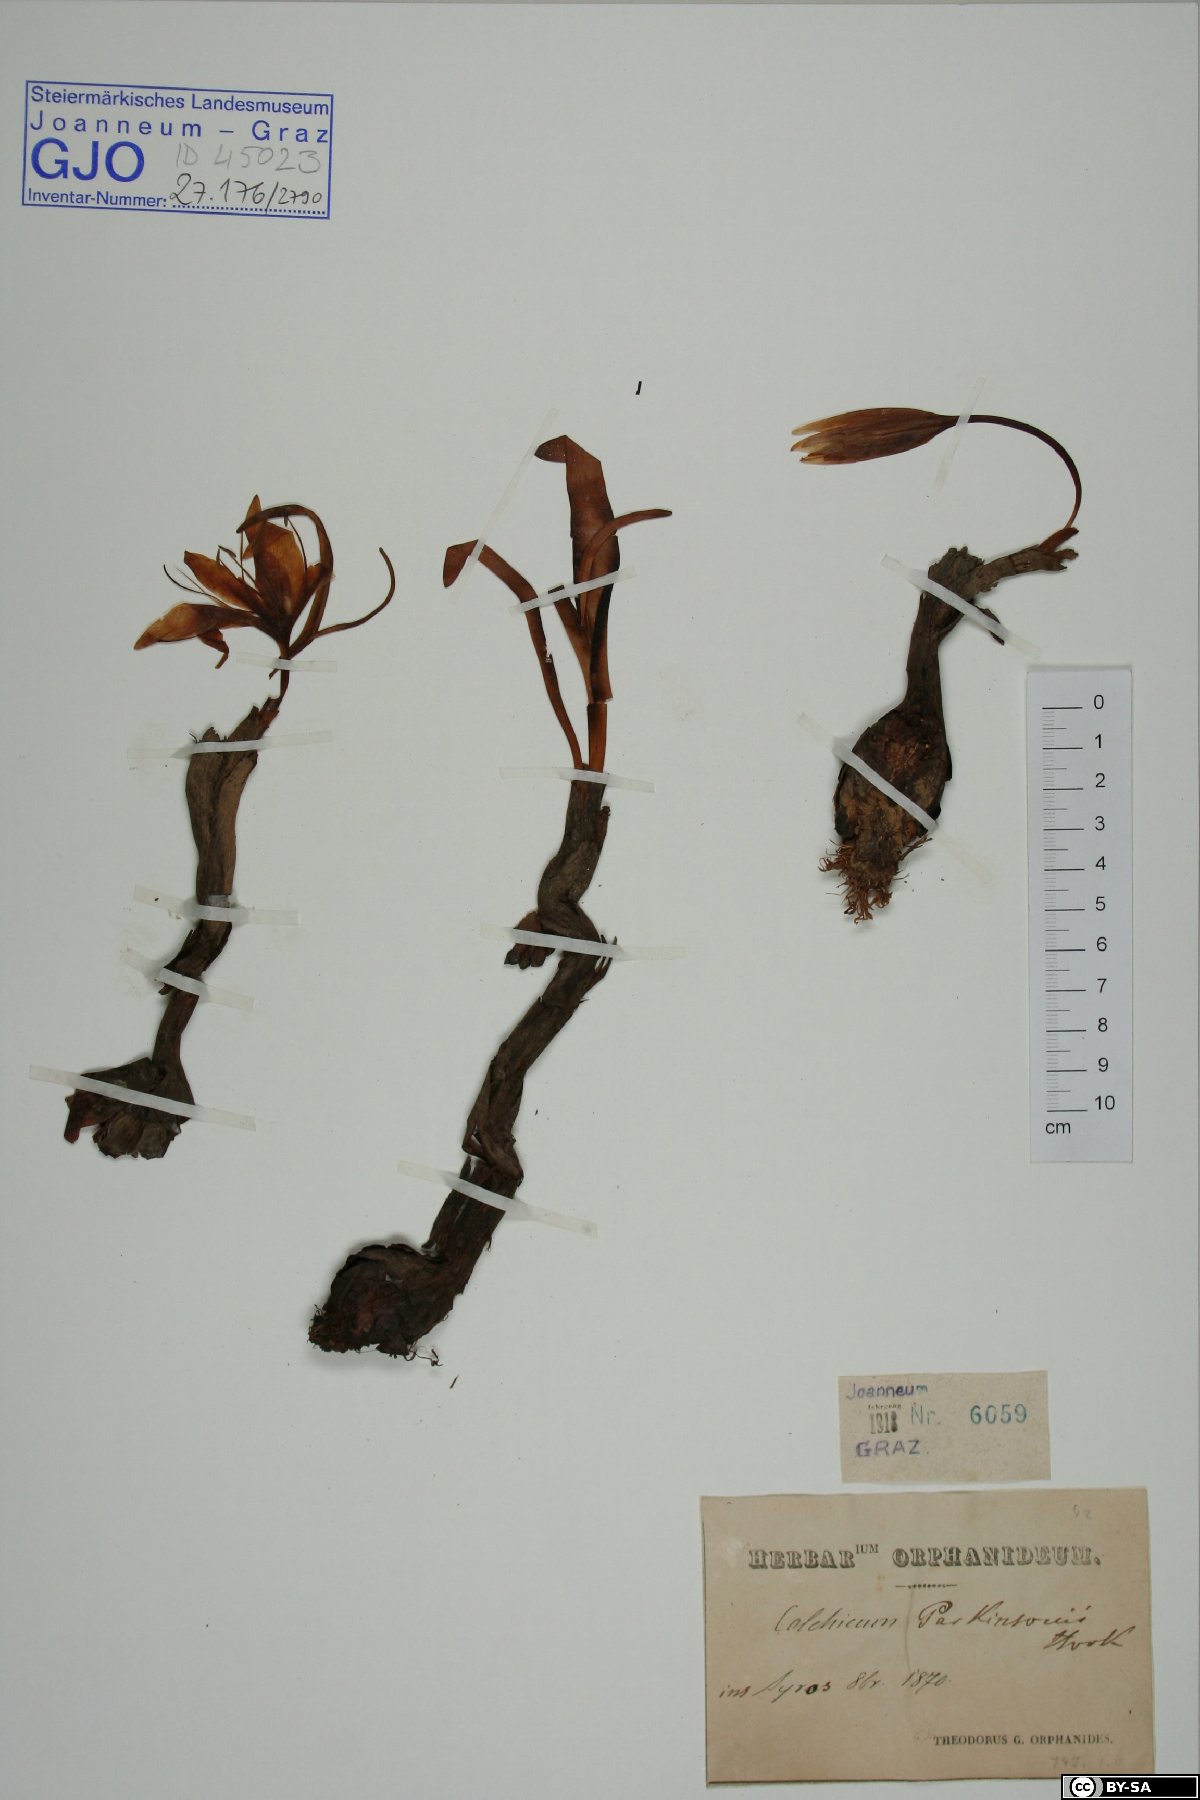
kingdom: Plantae
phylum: Tracheophyta
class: Liliopsida
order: Liliales
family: Colchicaceae
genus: Colchicum
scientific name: Colchicum variegatum
